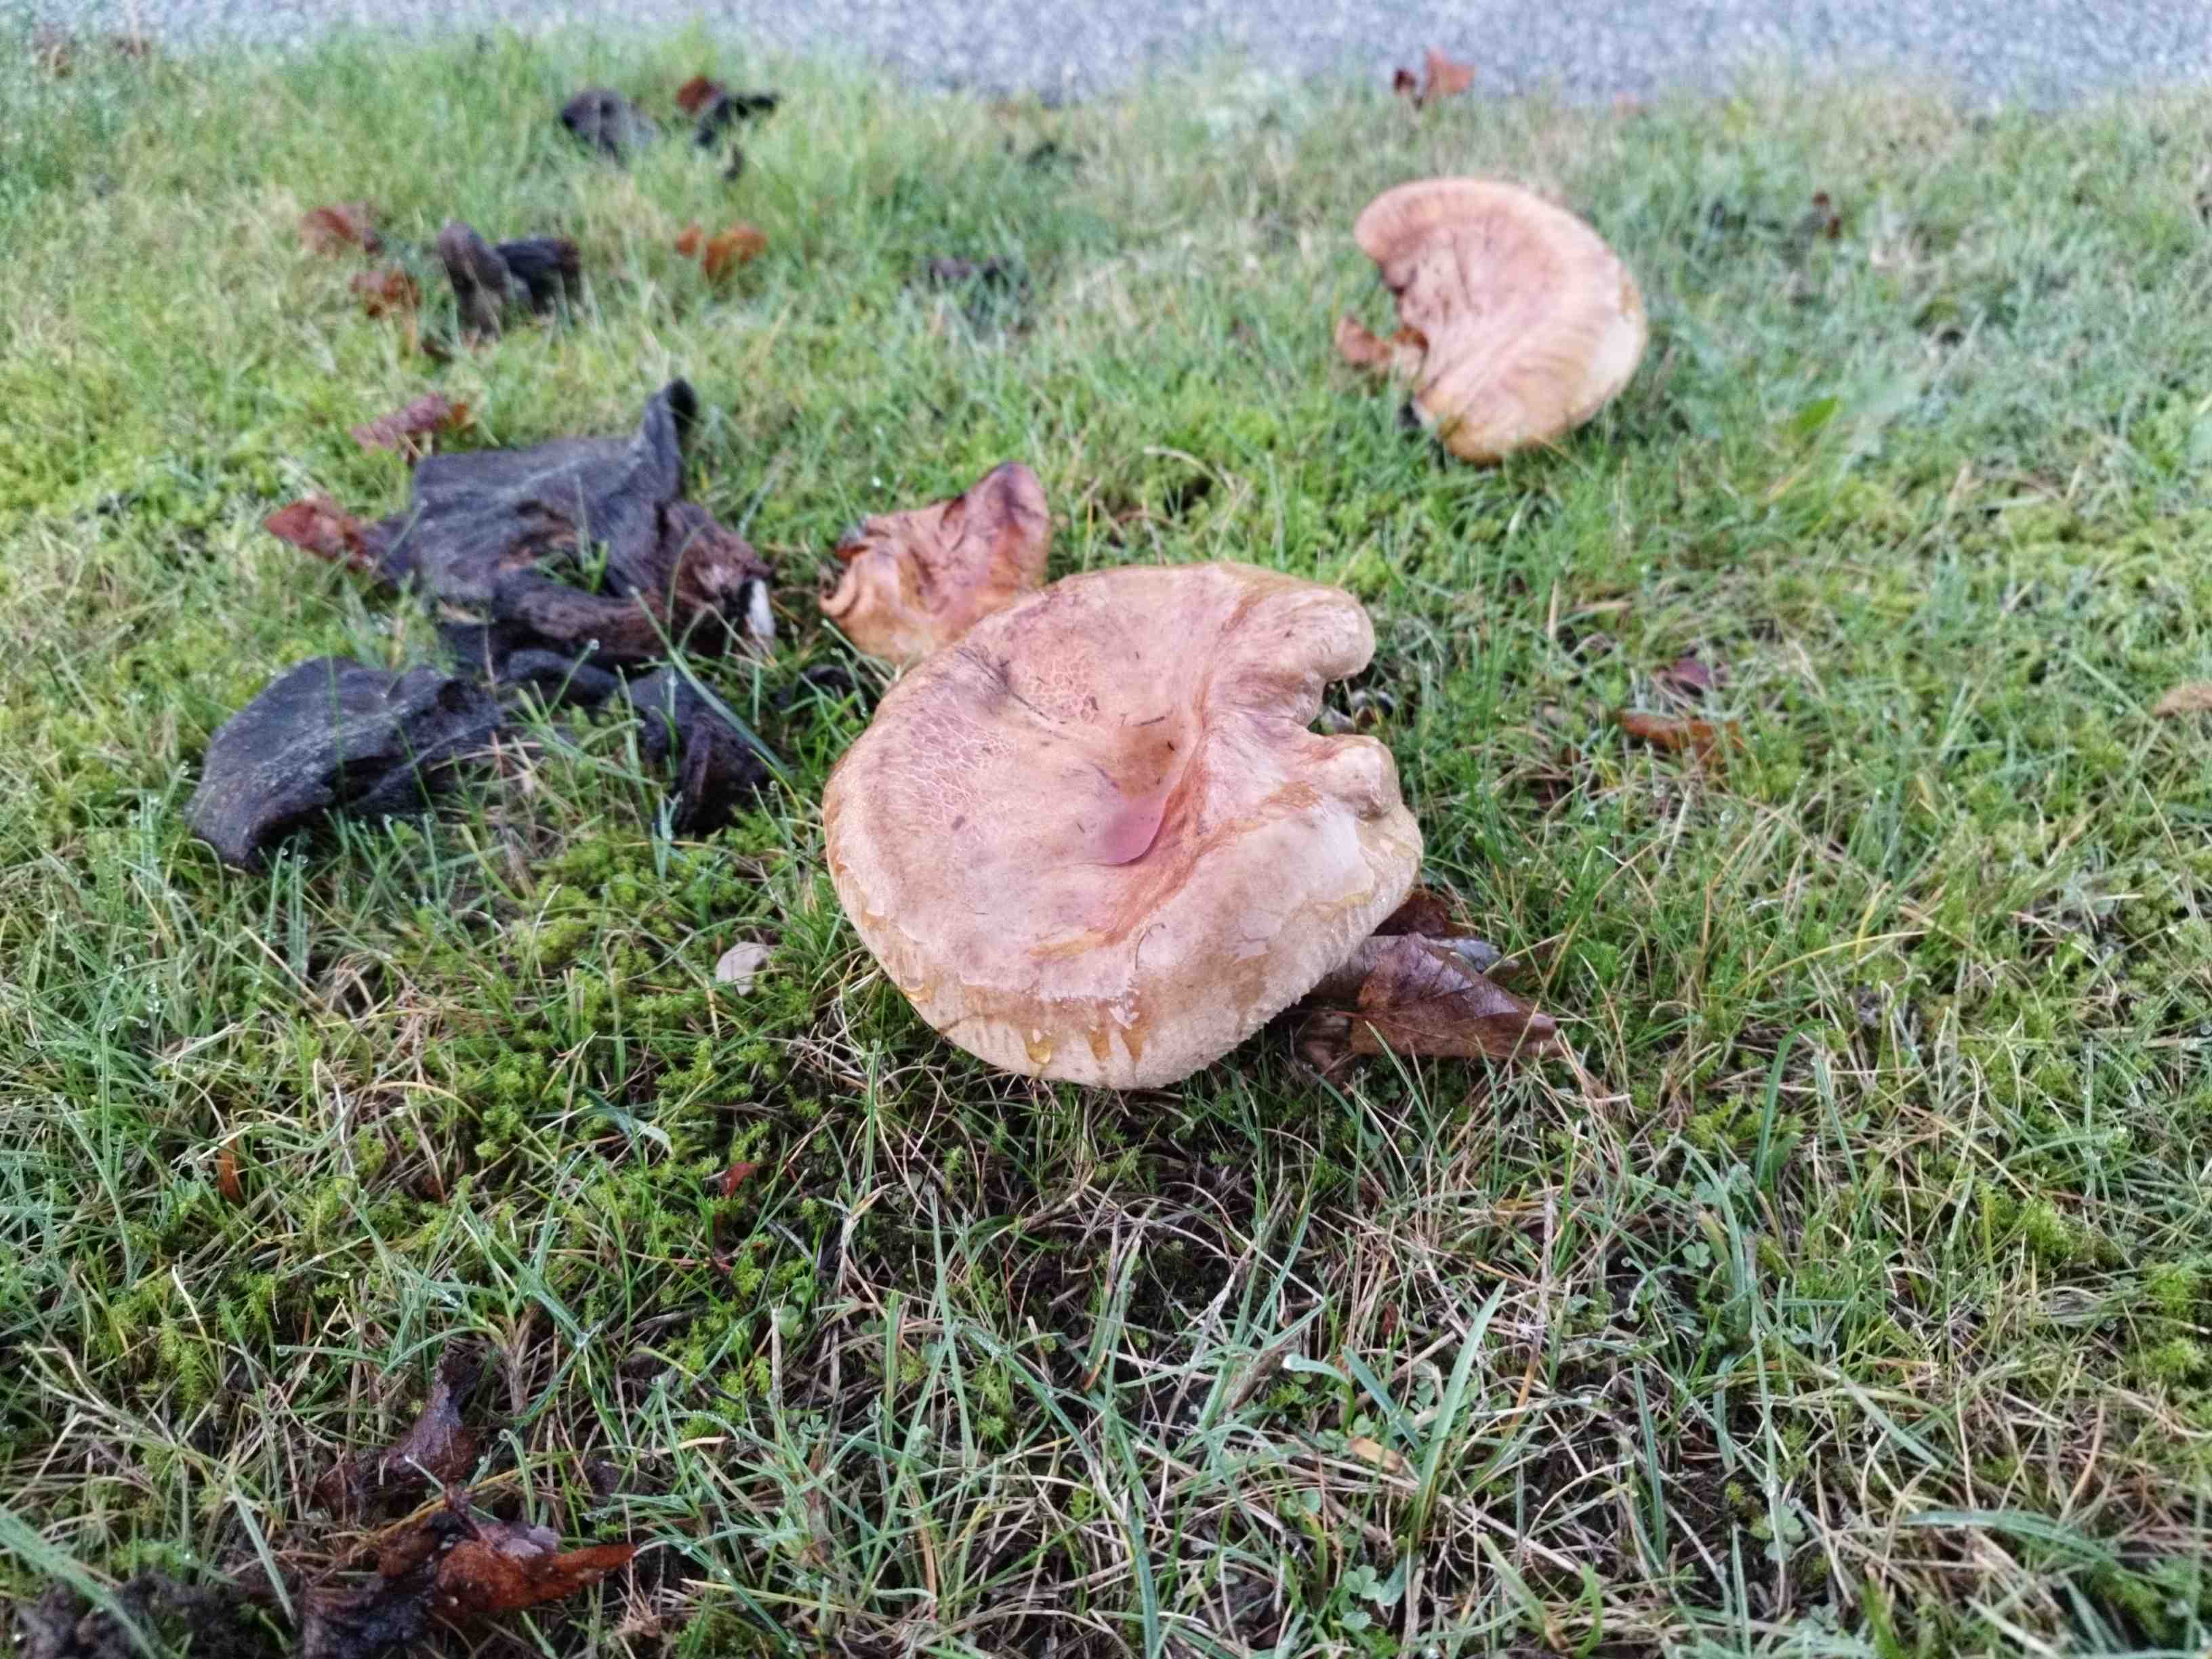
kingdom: Fungi
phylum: Basidiomycota
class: Agaricomycetes
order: Boletales
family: Paxillaceae
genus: Paxillus
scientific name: Paxillus
